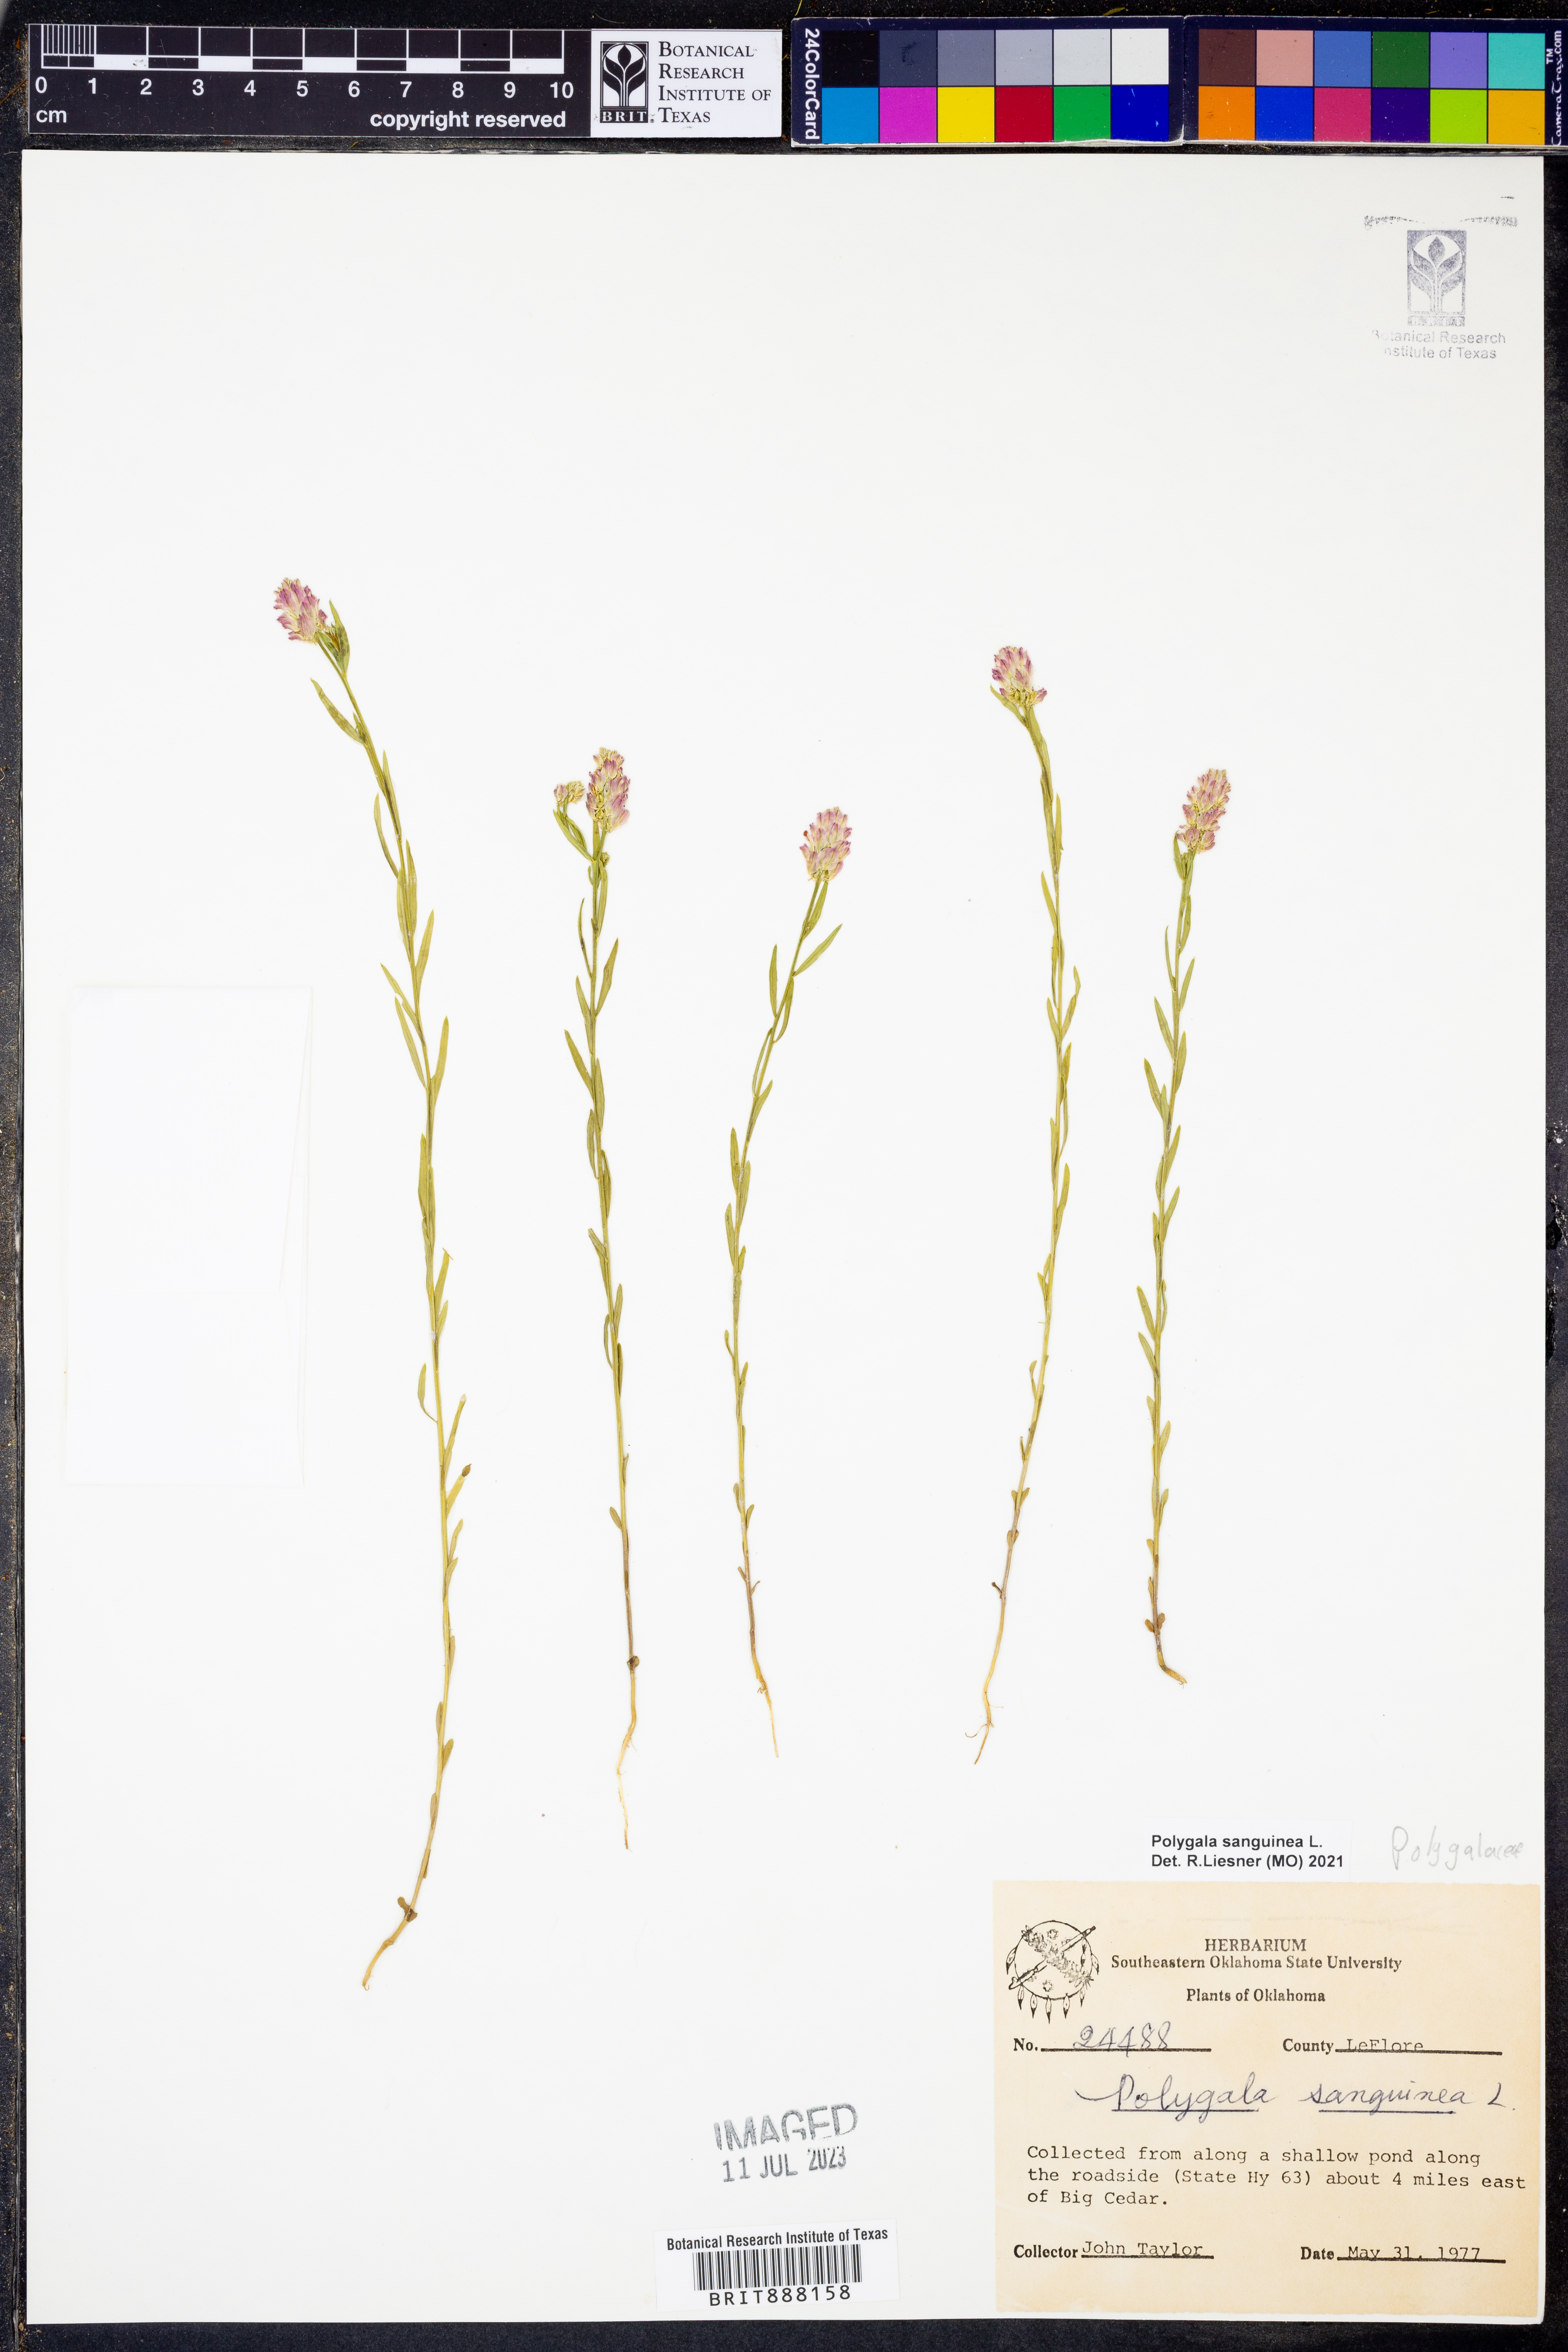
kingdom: Plantae
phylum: Tracheophyta
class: Magnoliopsida
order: Fabales
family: Polygalaceae
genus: Polygala
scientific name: Polygala sanguinea
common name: Blood milkwort
